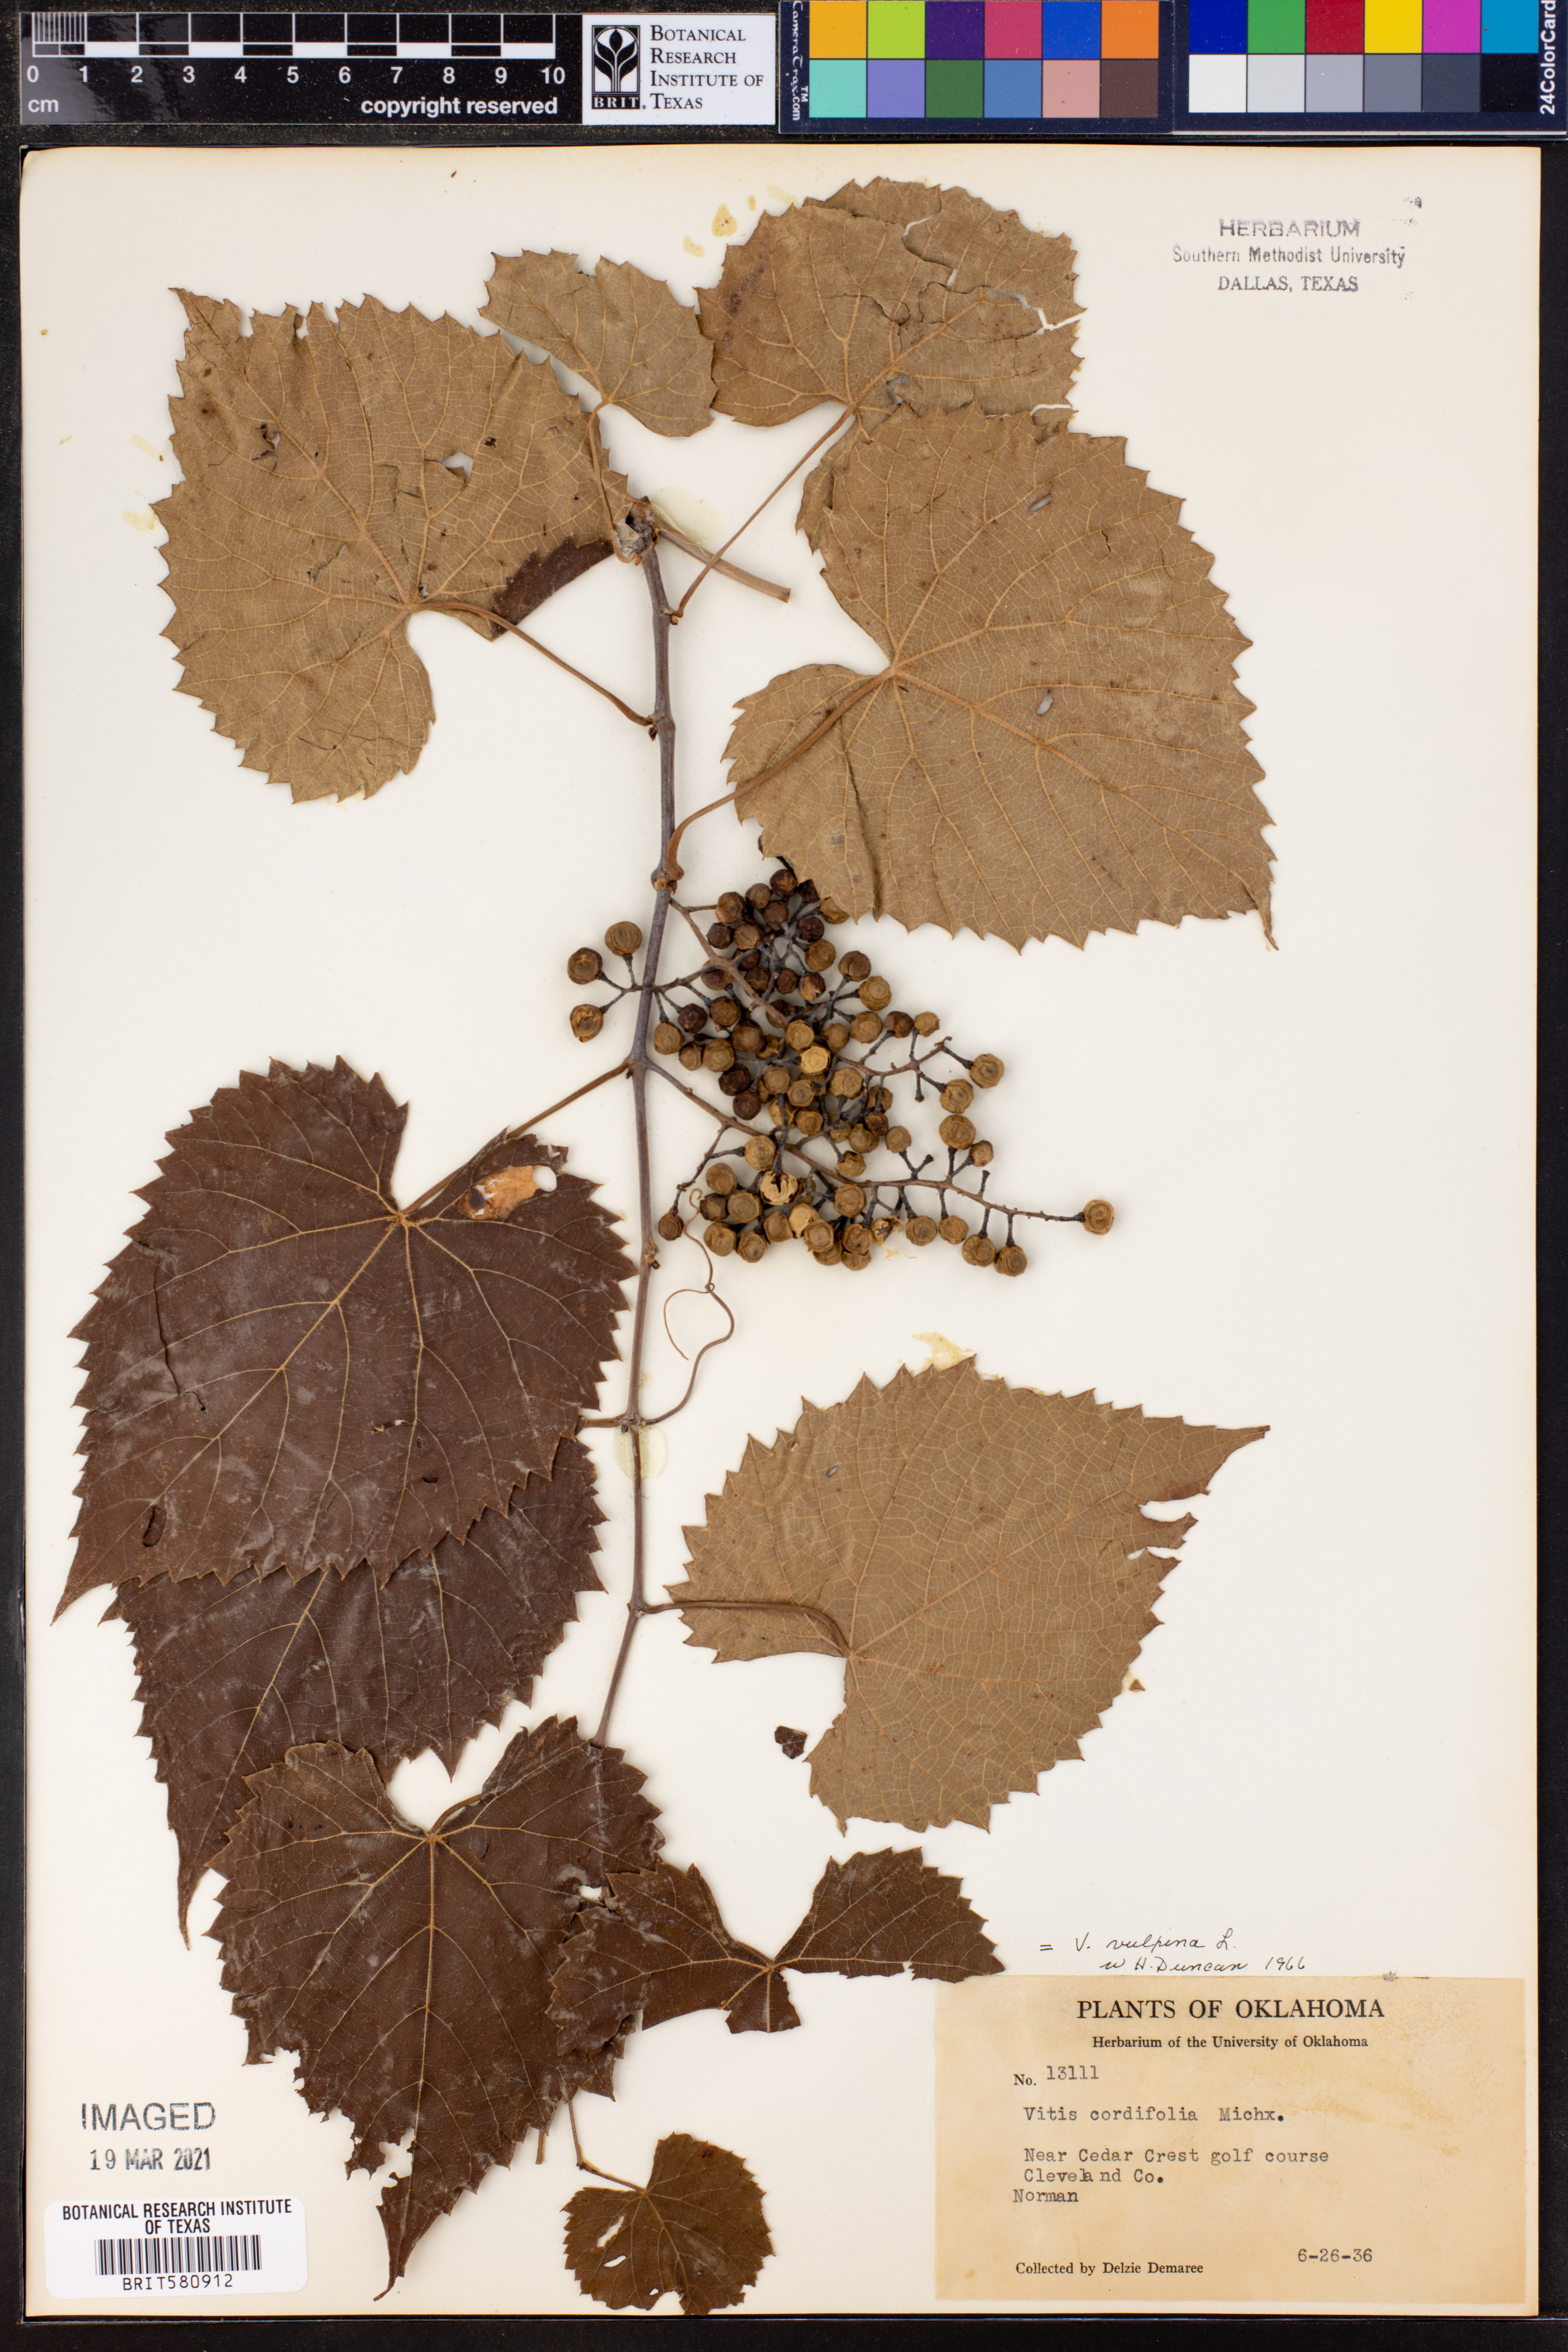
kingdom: Plantae
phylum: Tracheophyta
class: Magnoliopsida
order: Vitales
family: Vitaceae
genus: Vitis
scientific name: Vitis vulpina
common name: Frost grape
